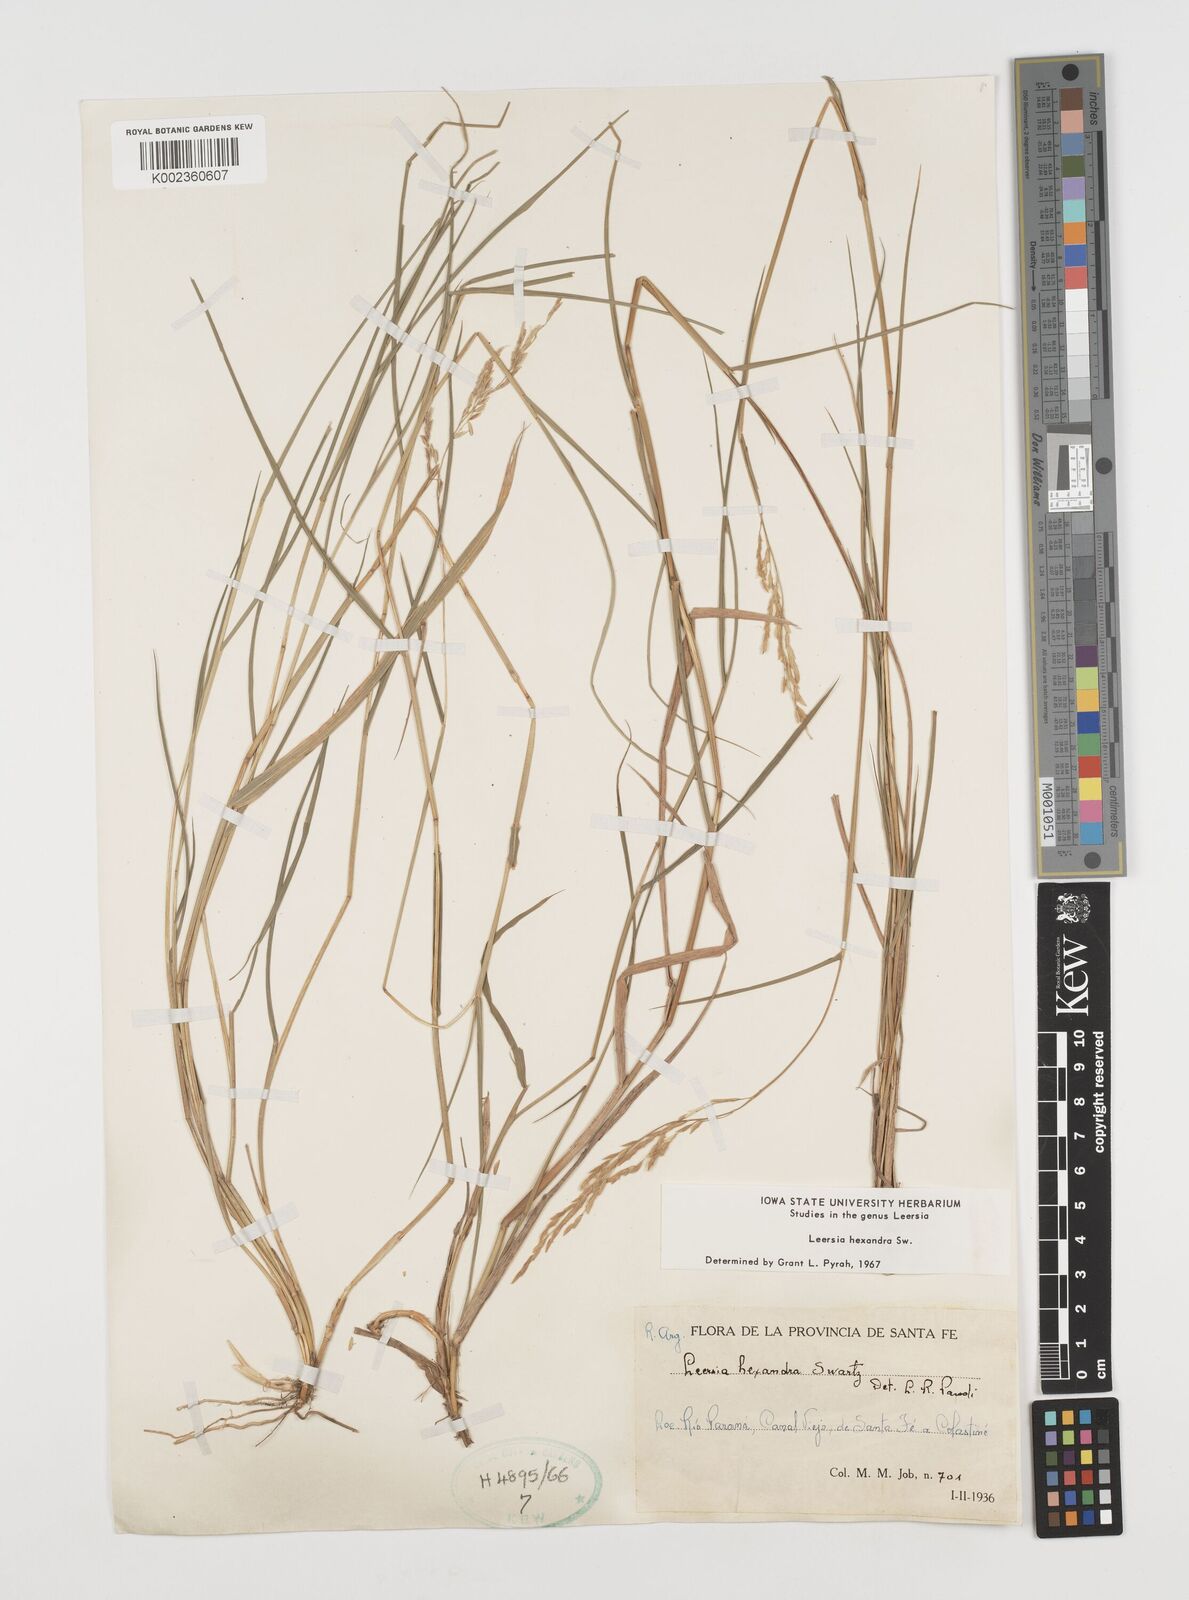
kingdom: Plantae
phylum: Tracheophyta
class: Liliopsida
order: Poales
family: Poaceae
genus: Leersia
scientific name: Leersia hexandra
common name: Southern cut grass
